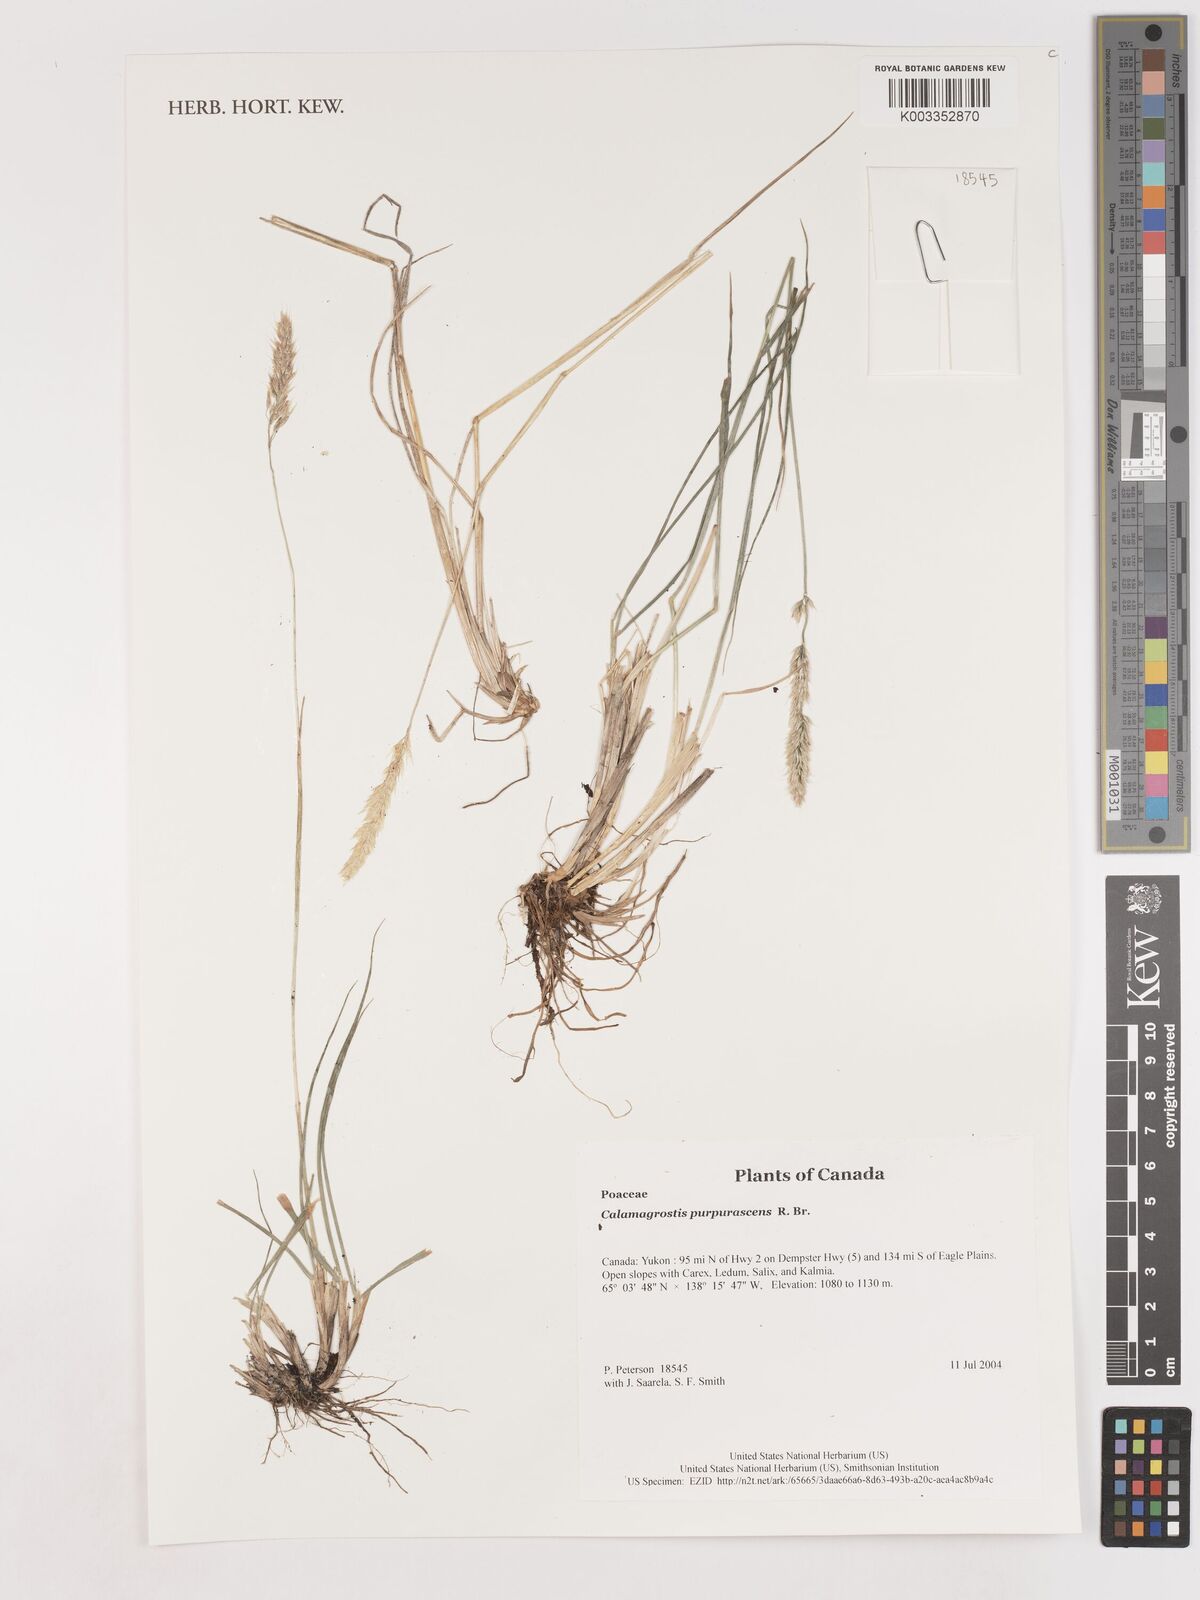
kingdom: Plantae
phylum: Tracheophyta
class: Liliopsida
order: Poales
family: Poaceae
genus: Calamagrostis
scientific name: Calamagrostis purpurascens
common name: Purple reedgrass
